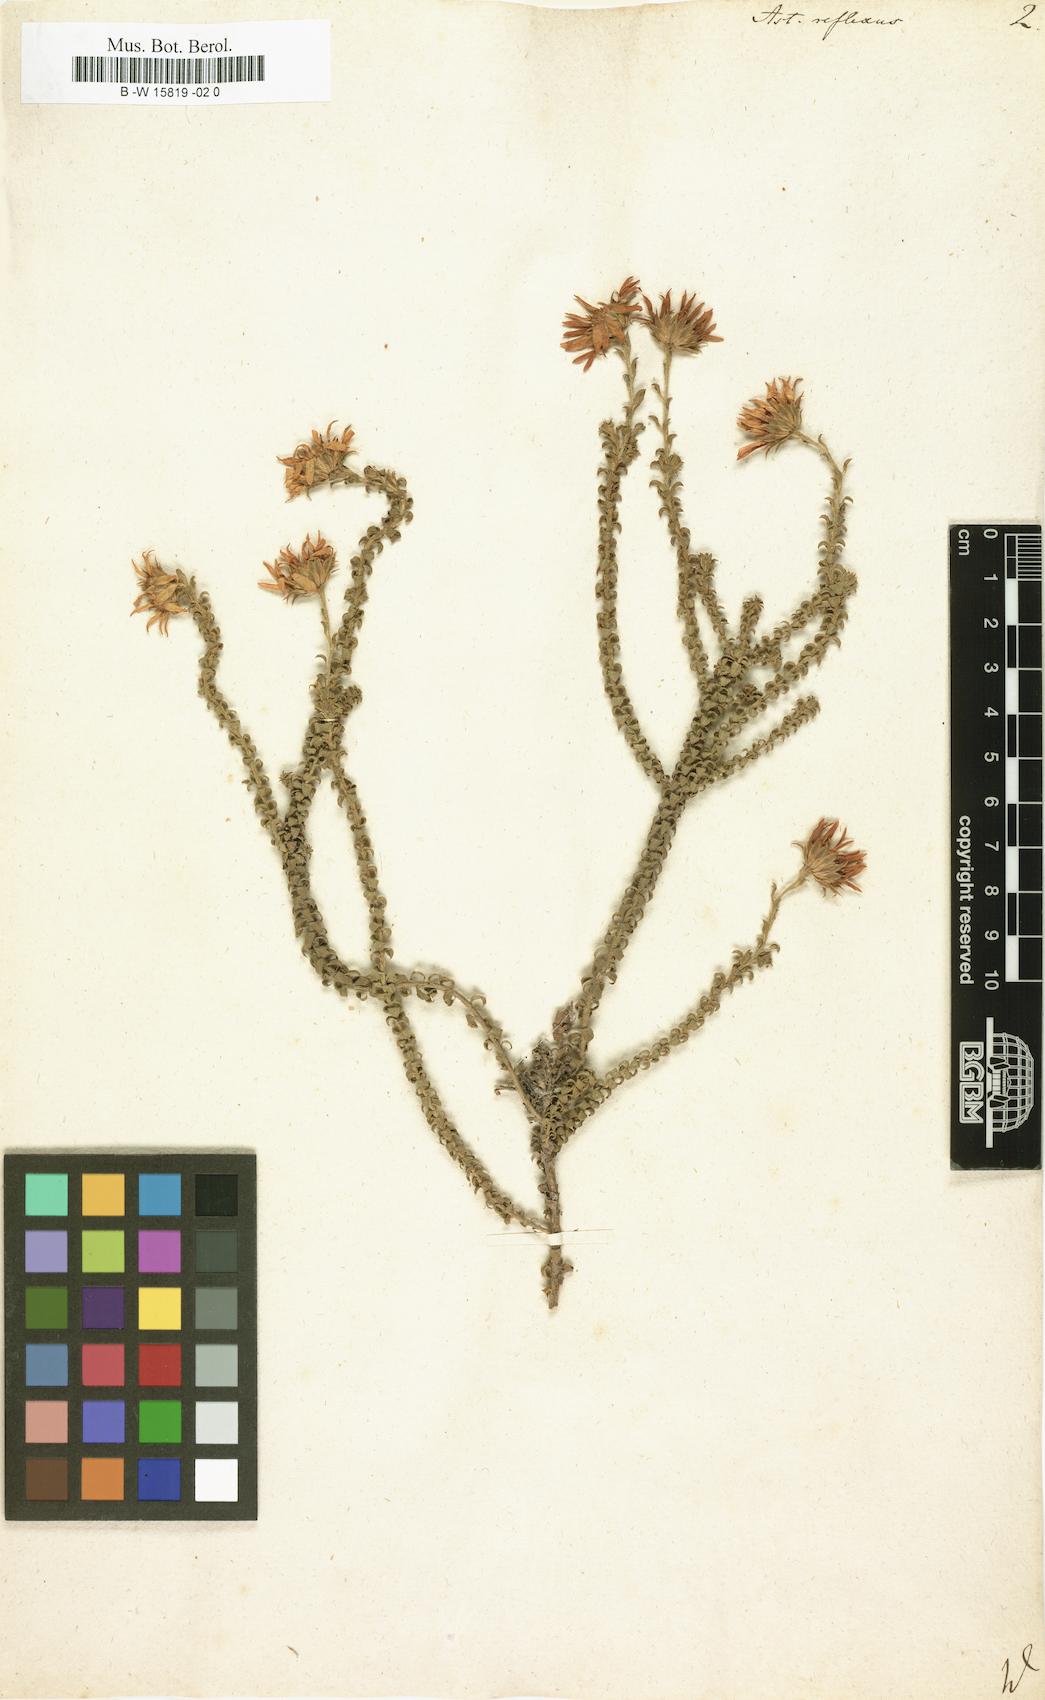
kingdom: Plantae
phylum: Tracheophyta
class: Magnoliopsida
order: Asterales
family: Asteraceae
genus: Polyarrhena
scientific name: Polyarrhena reflexa
